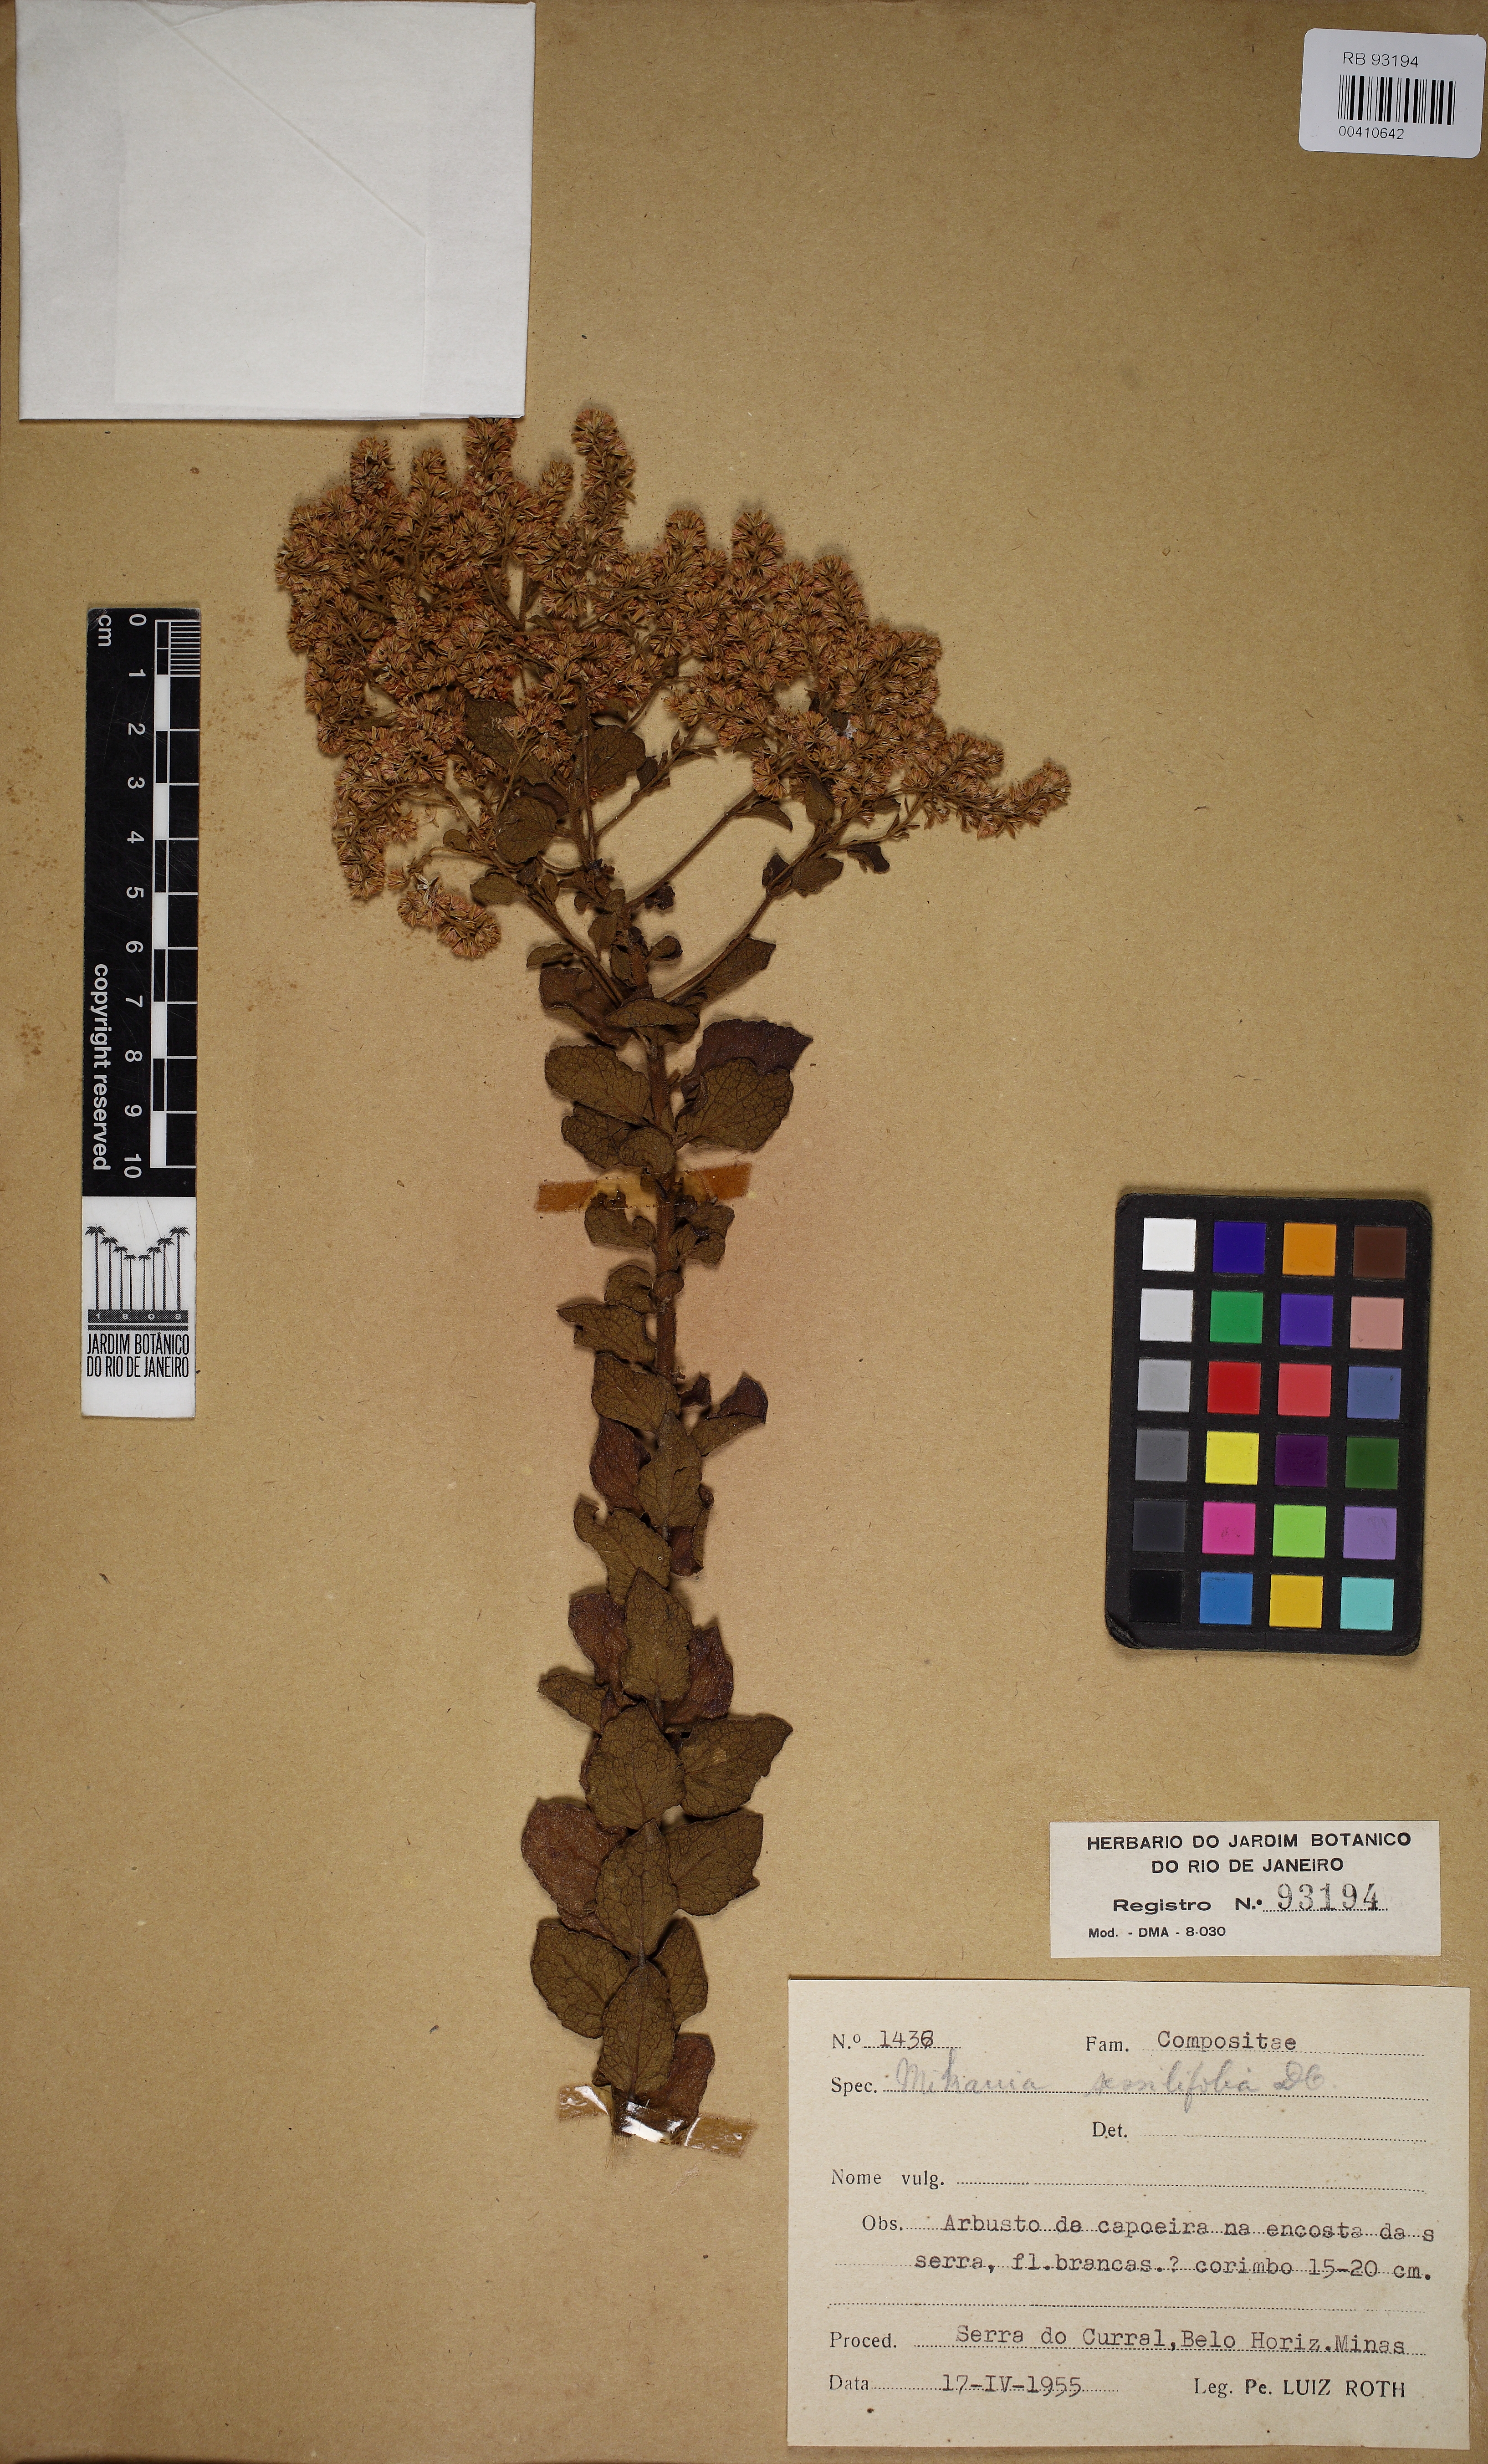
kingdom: Plantae
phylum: Tracheophyta
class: Magnoliopsida
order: Asterales
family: Asteraceae
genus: Mikania
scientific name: Mikania sessilifolia
